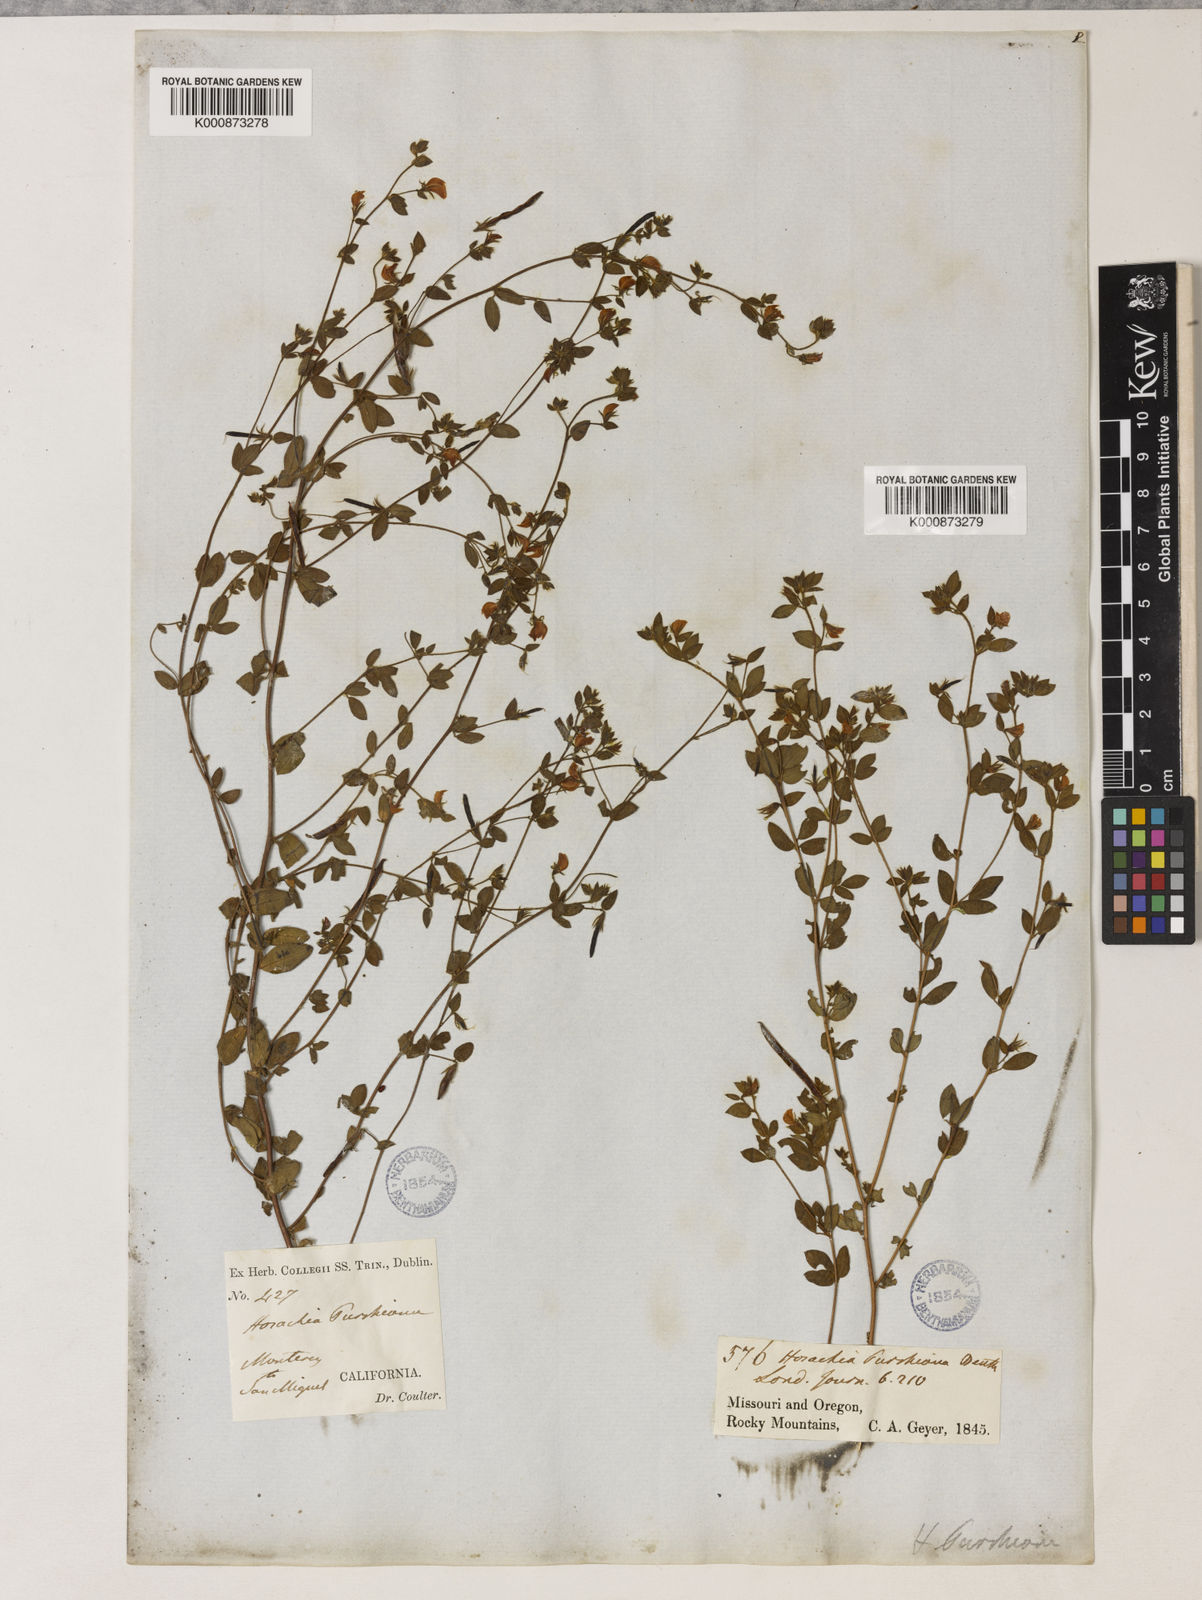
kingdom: Plantae
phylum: Tracheophyta
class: Magnoliopsida
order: Fabales
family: Fabaceae
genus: Collaea
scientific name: Collaea speciosa
